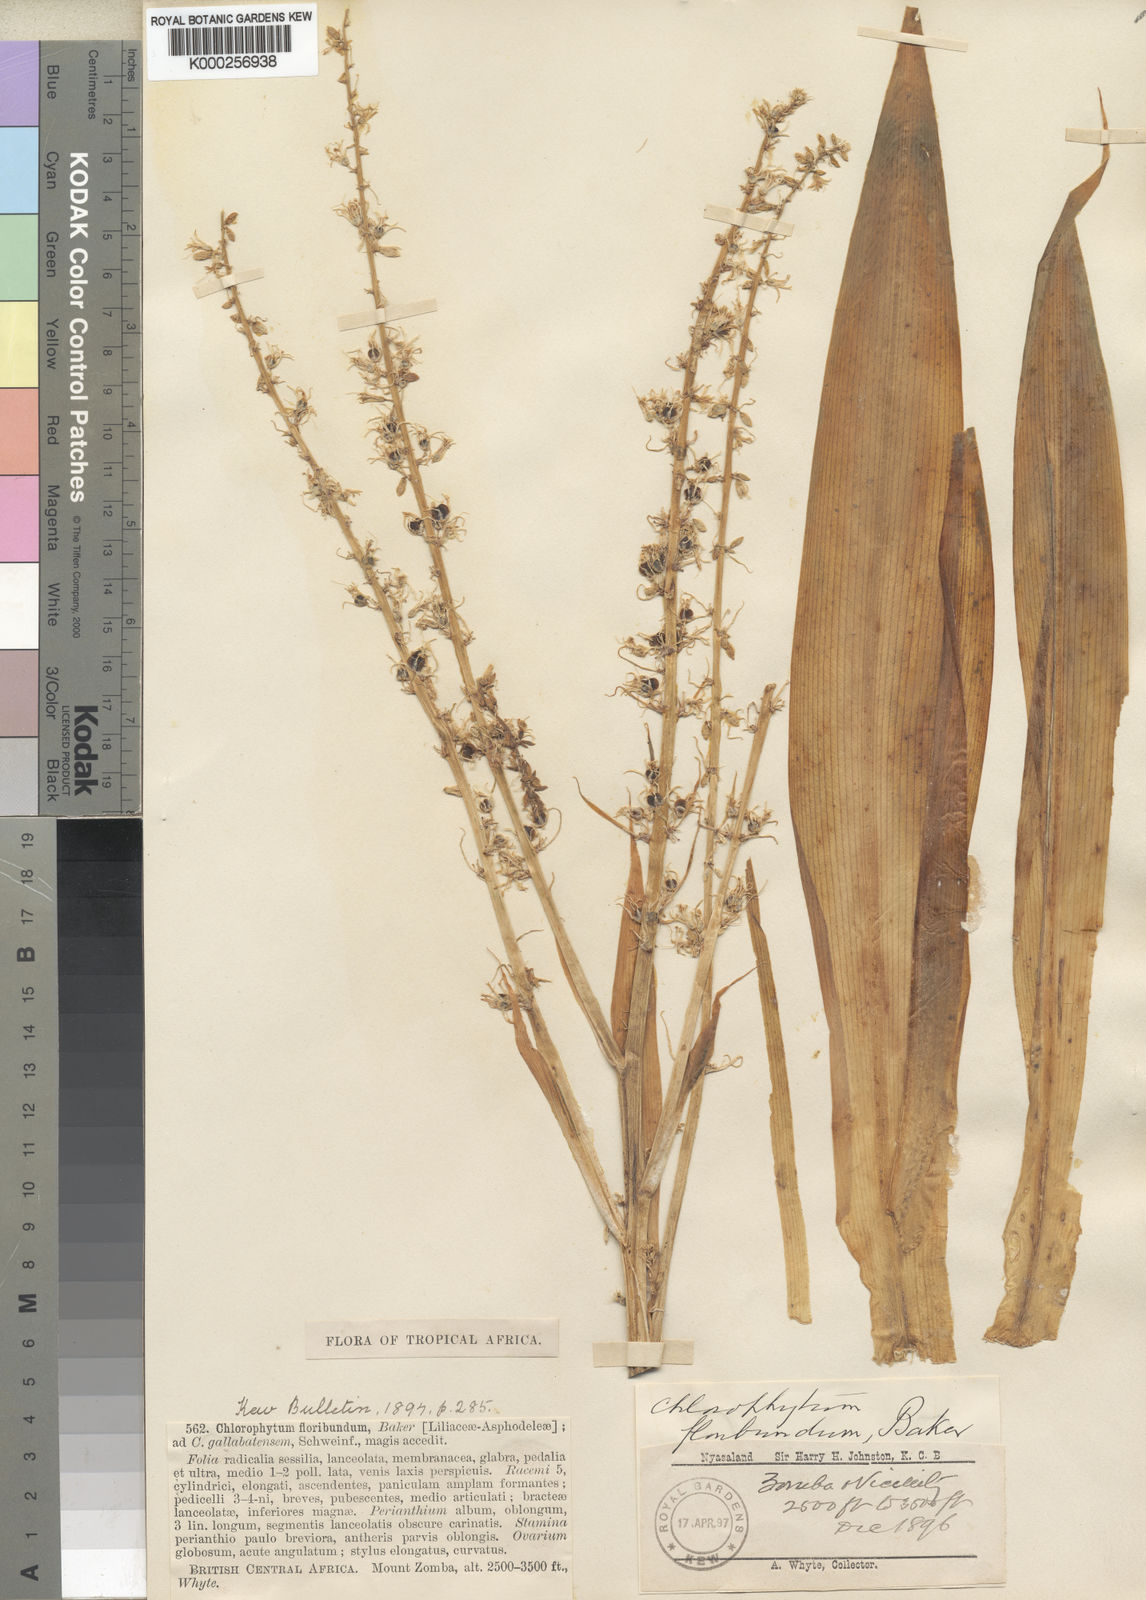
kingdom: Plantae
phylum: Tracheophyta
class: Liliopsida
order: Asparagales
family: Asparagaceae
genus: Chlorophytum
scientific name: Chlorophytum gallabatense
